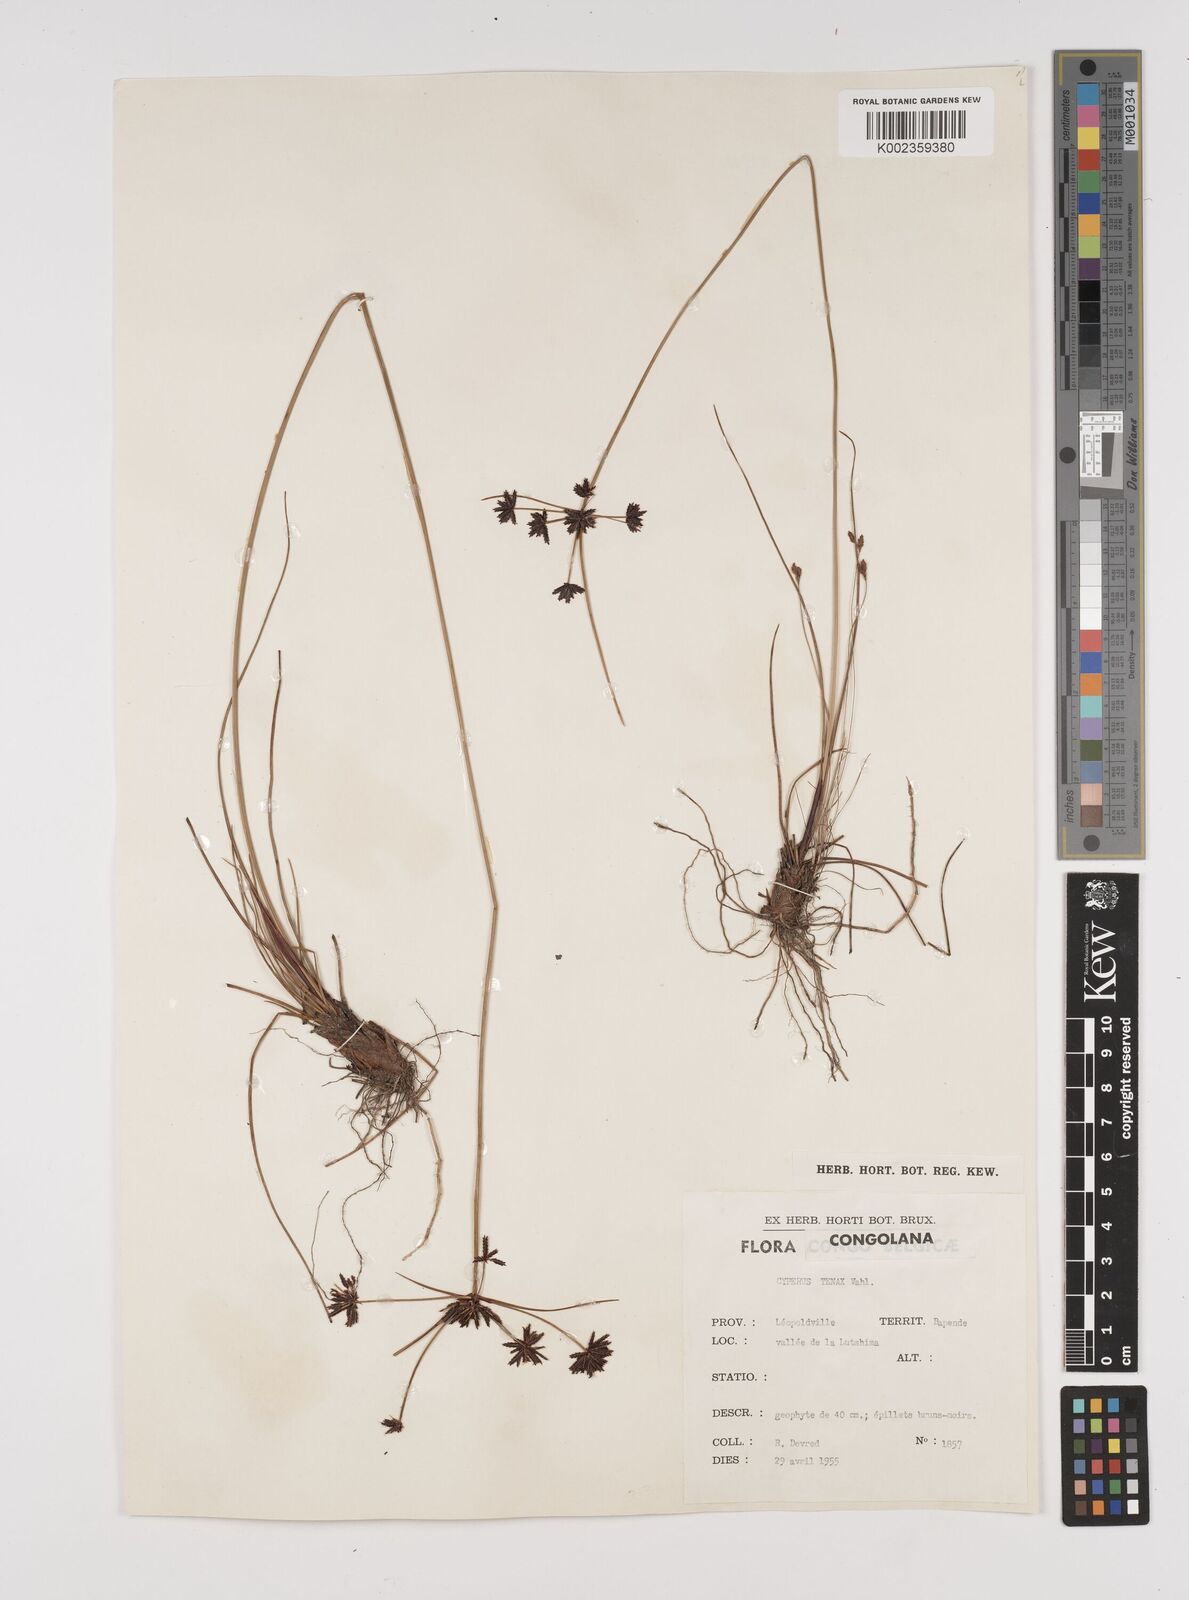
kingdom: Plantae
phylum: Tracheophyta
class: Liliopsida
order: Poales
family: Cyperaceae
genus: Cyperus
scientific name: Cyperus tenax
